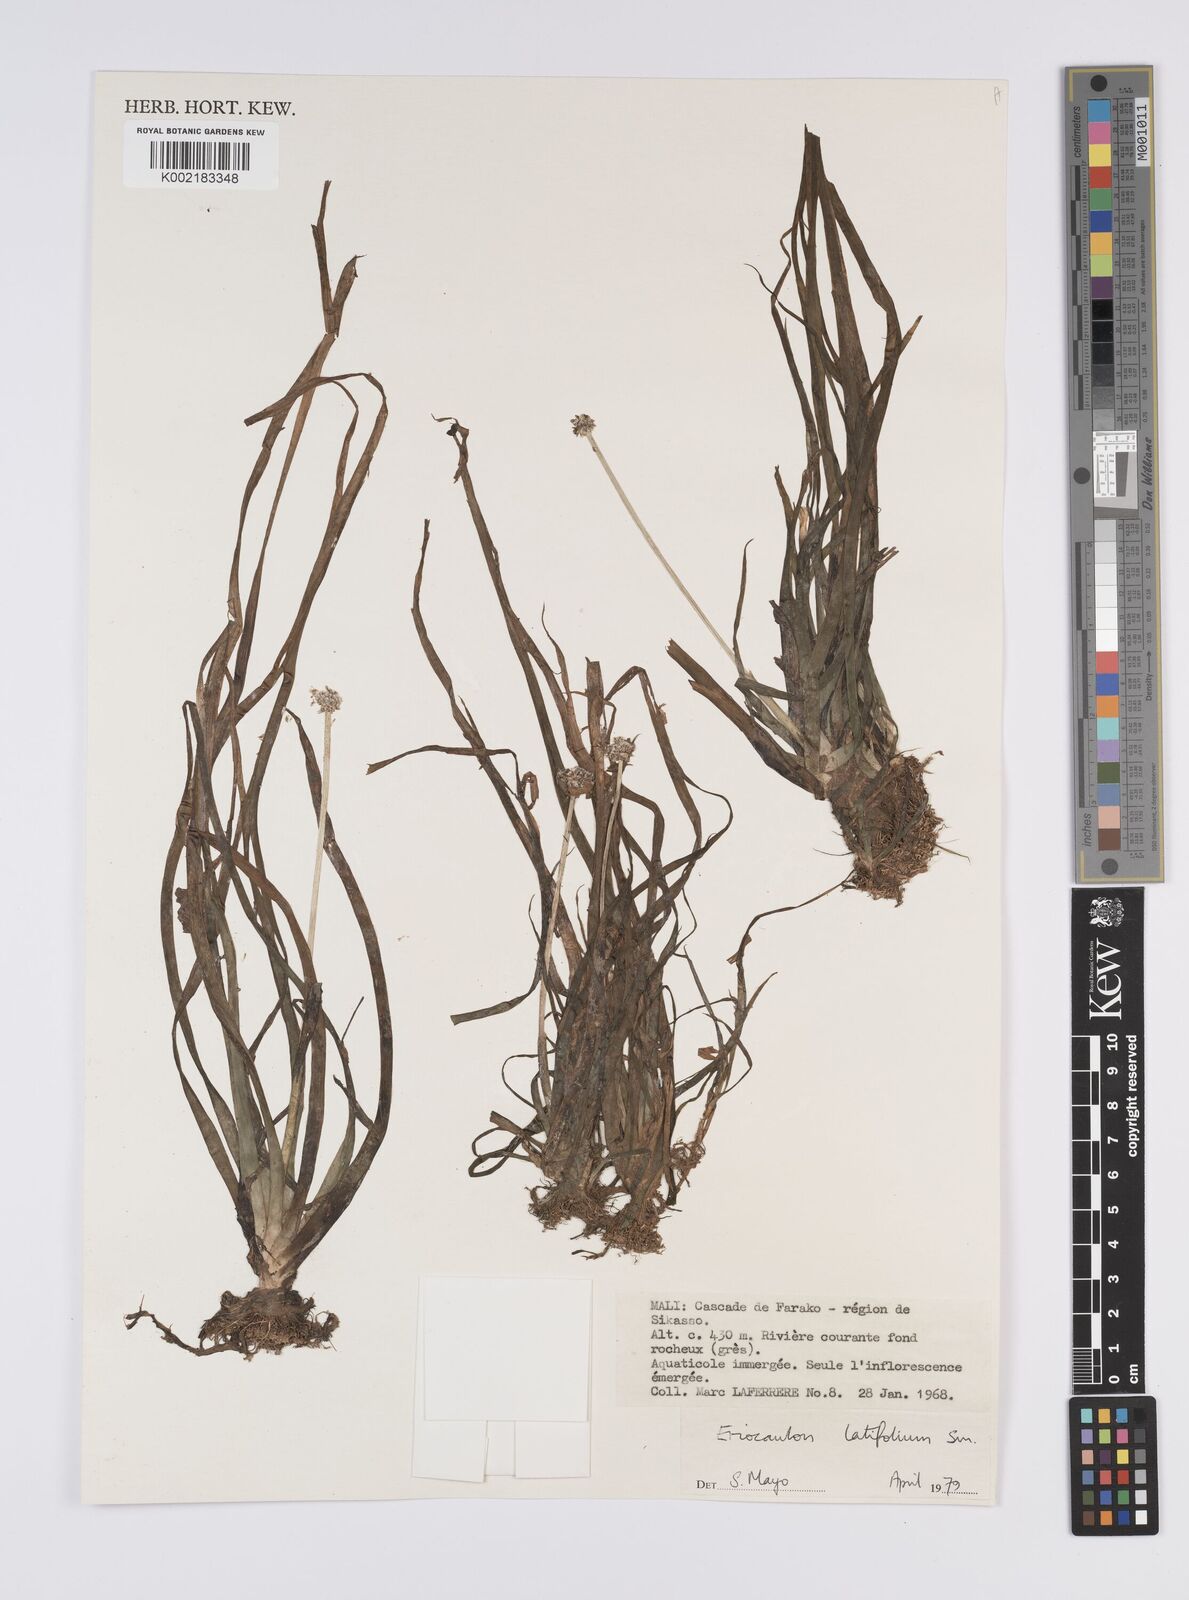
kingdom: Plantae
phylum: Tracheophyta
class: Liliopsida
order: Poales
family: Eriocaulaceae
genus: Eriocaulon
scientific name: Eriocaulon latifolium
